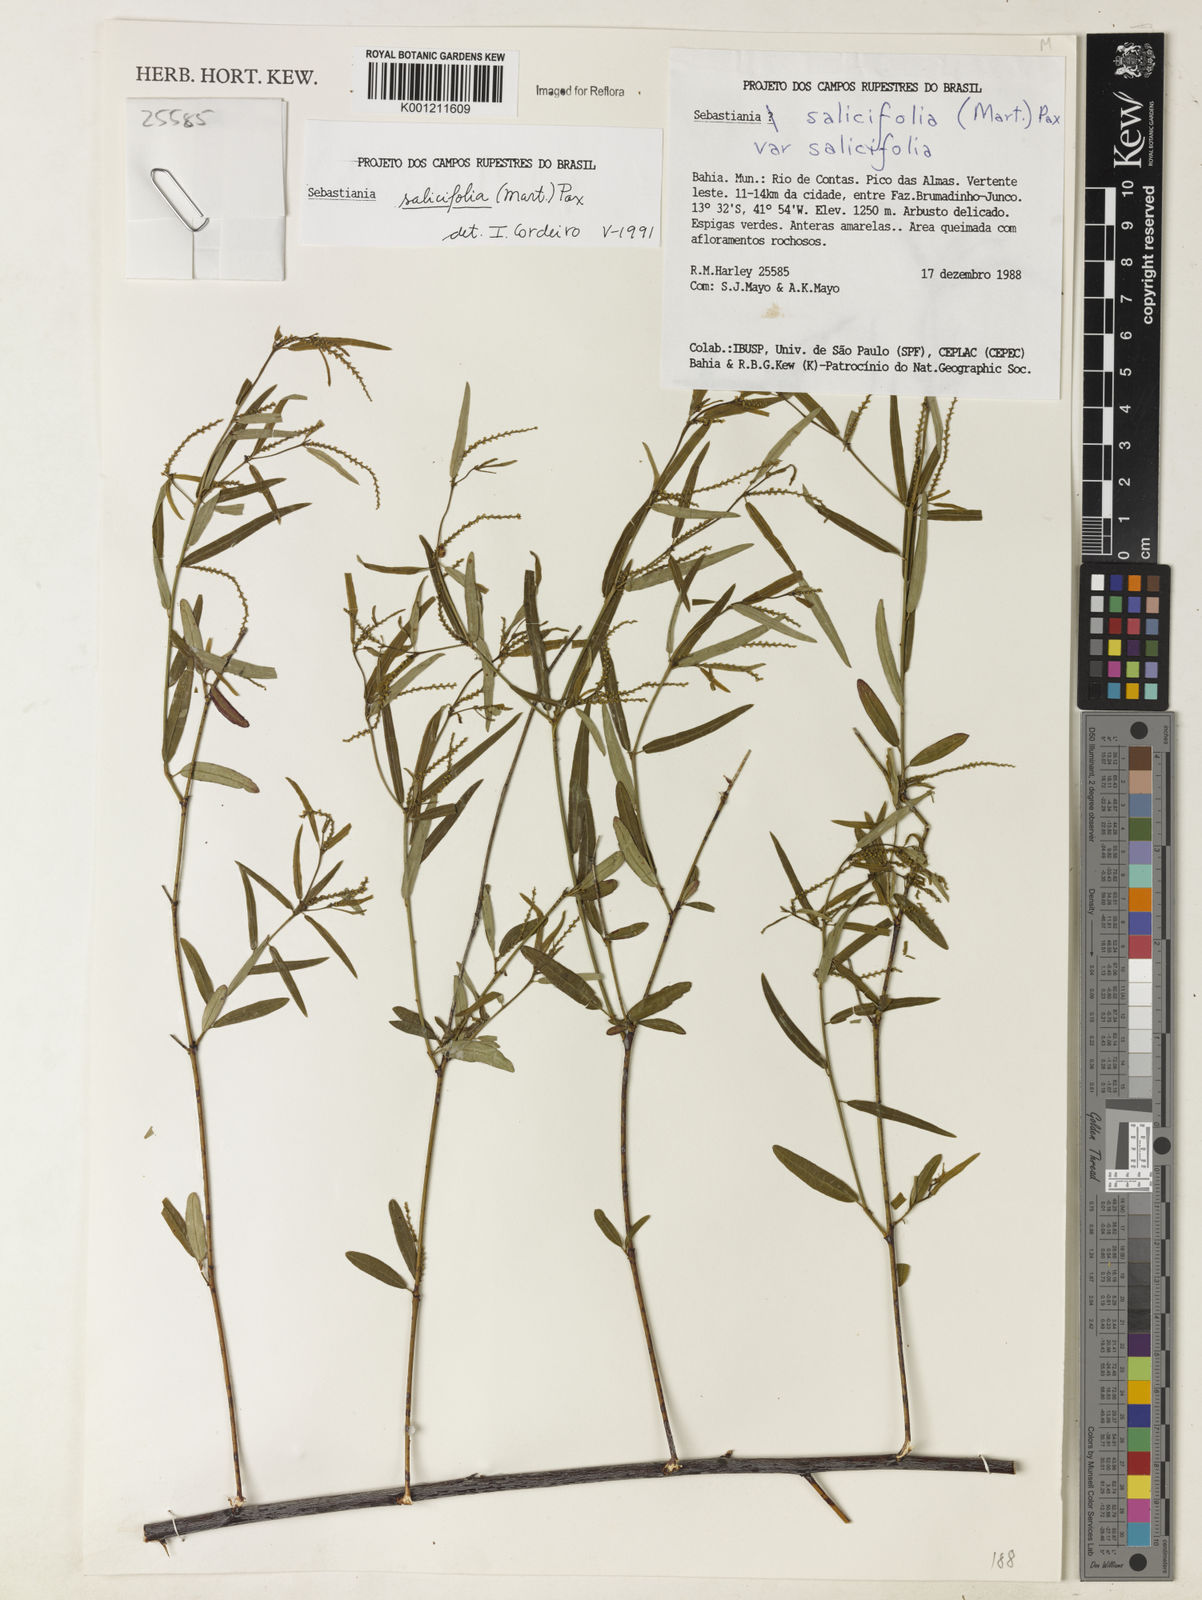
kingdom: Plantae
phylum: Tracheophyta
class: Magnoliopsida
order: Malpighiales
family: Euphorbiaceae
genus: Microstachys
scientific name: Microstachys
